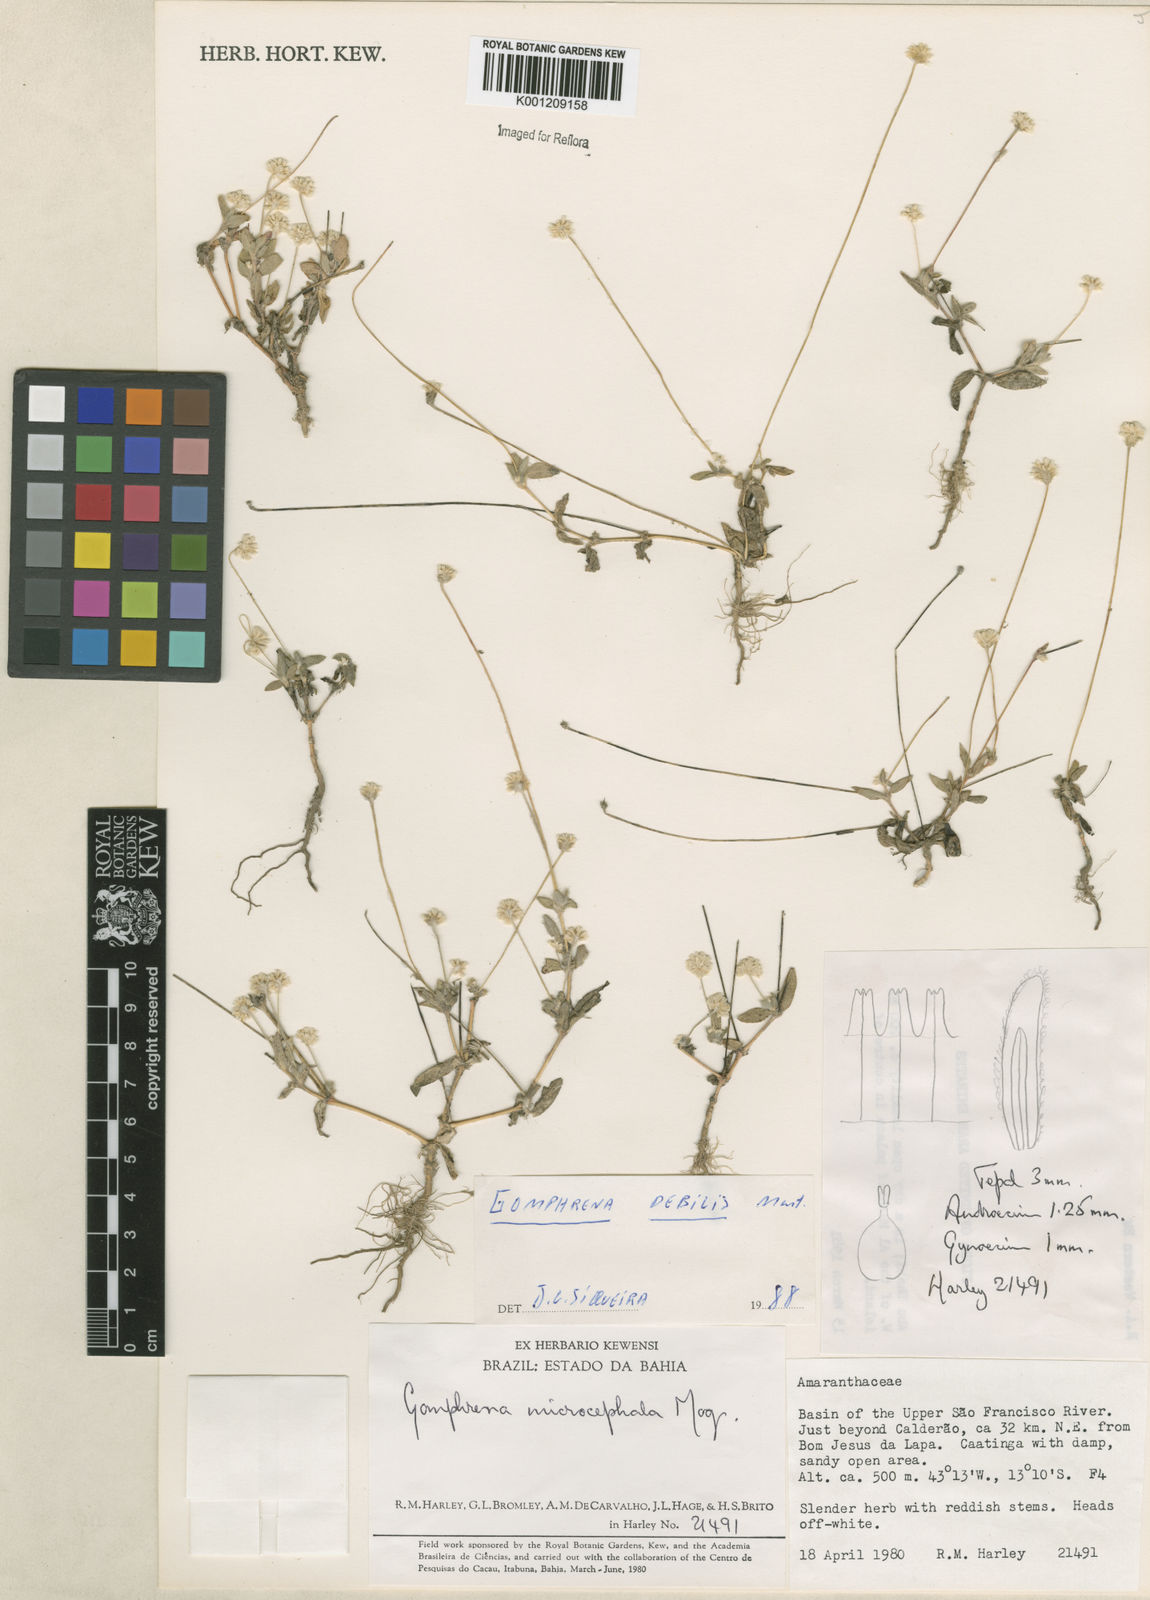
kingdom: Plantae
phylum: Tracheophyta
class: Magnoliopsida
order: Caryophyllales
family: Amaranthaceae
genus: Gomphrena
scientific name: Gomphrena microcephala
